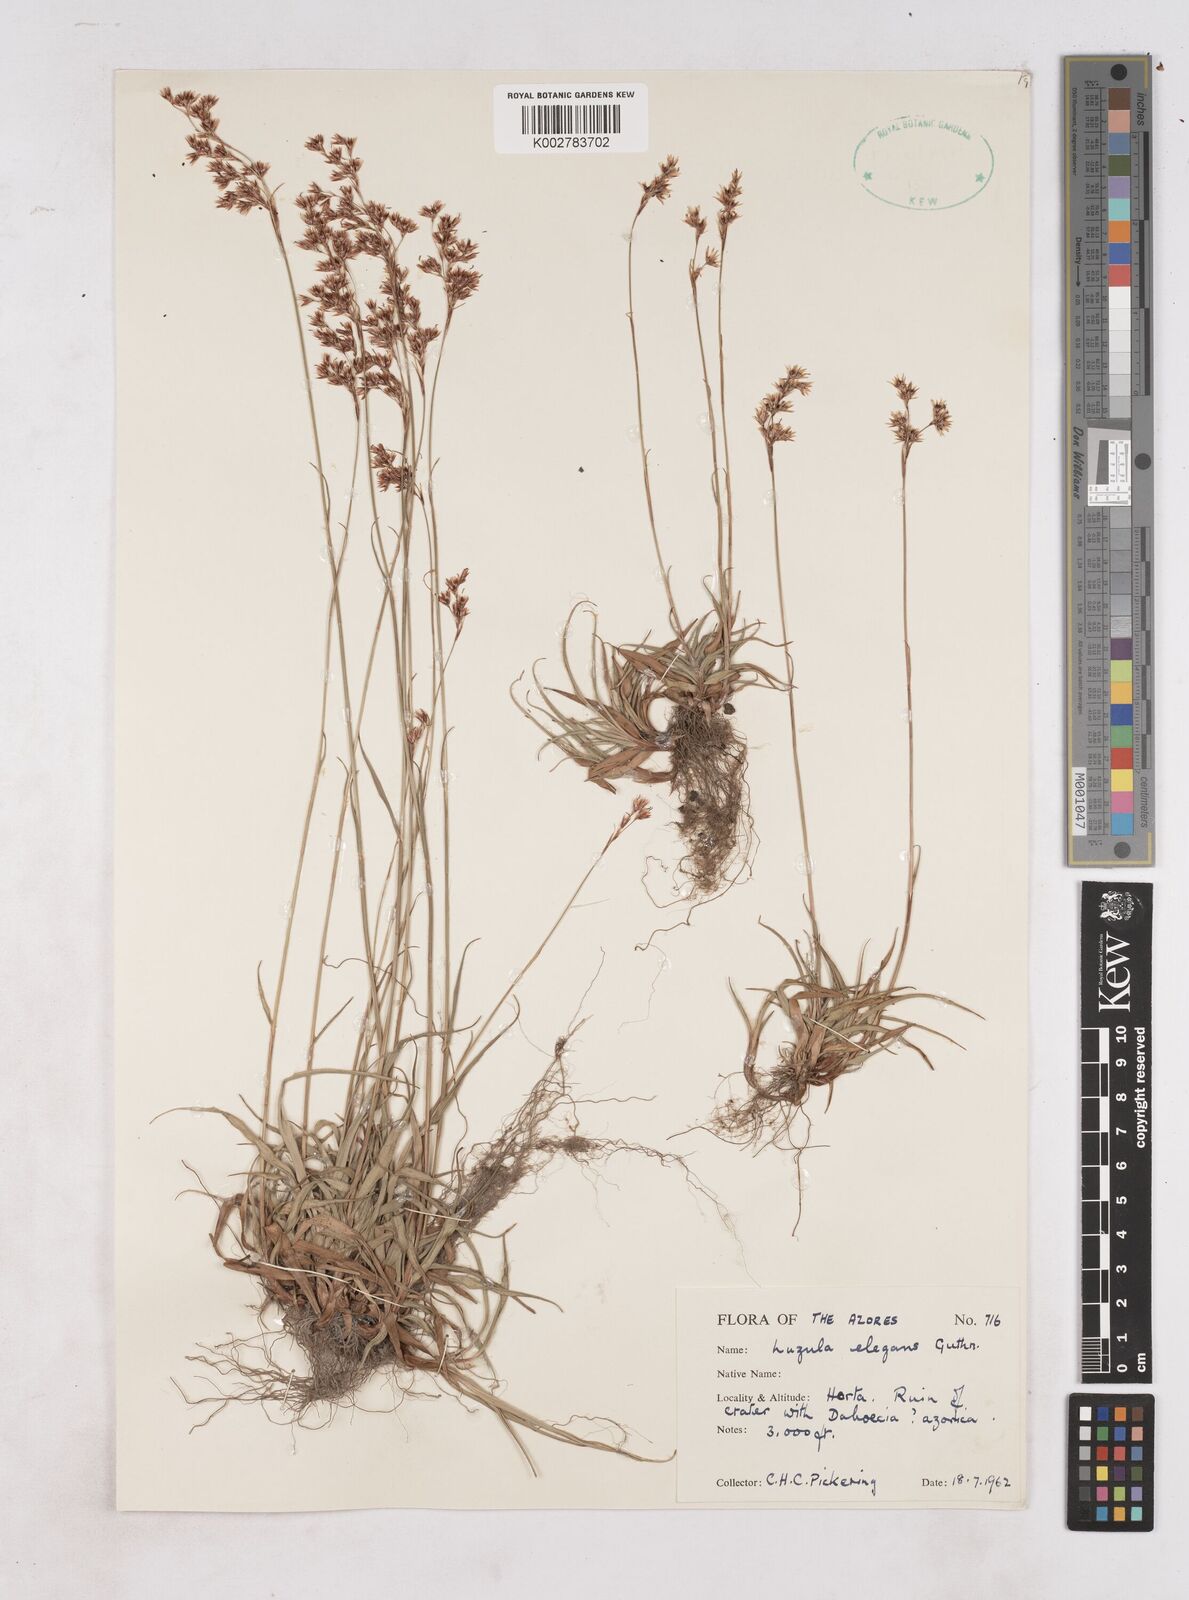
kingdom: Plantae
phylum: Tracheophyta
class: Liliopsida
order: Poales
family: Juncaceae
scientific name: Juncaceae
